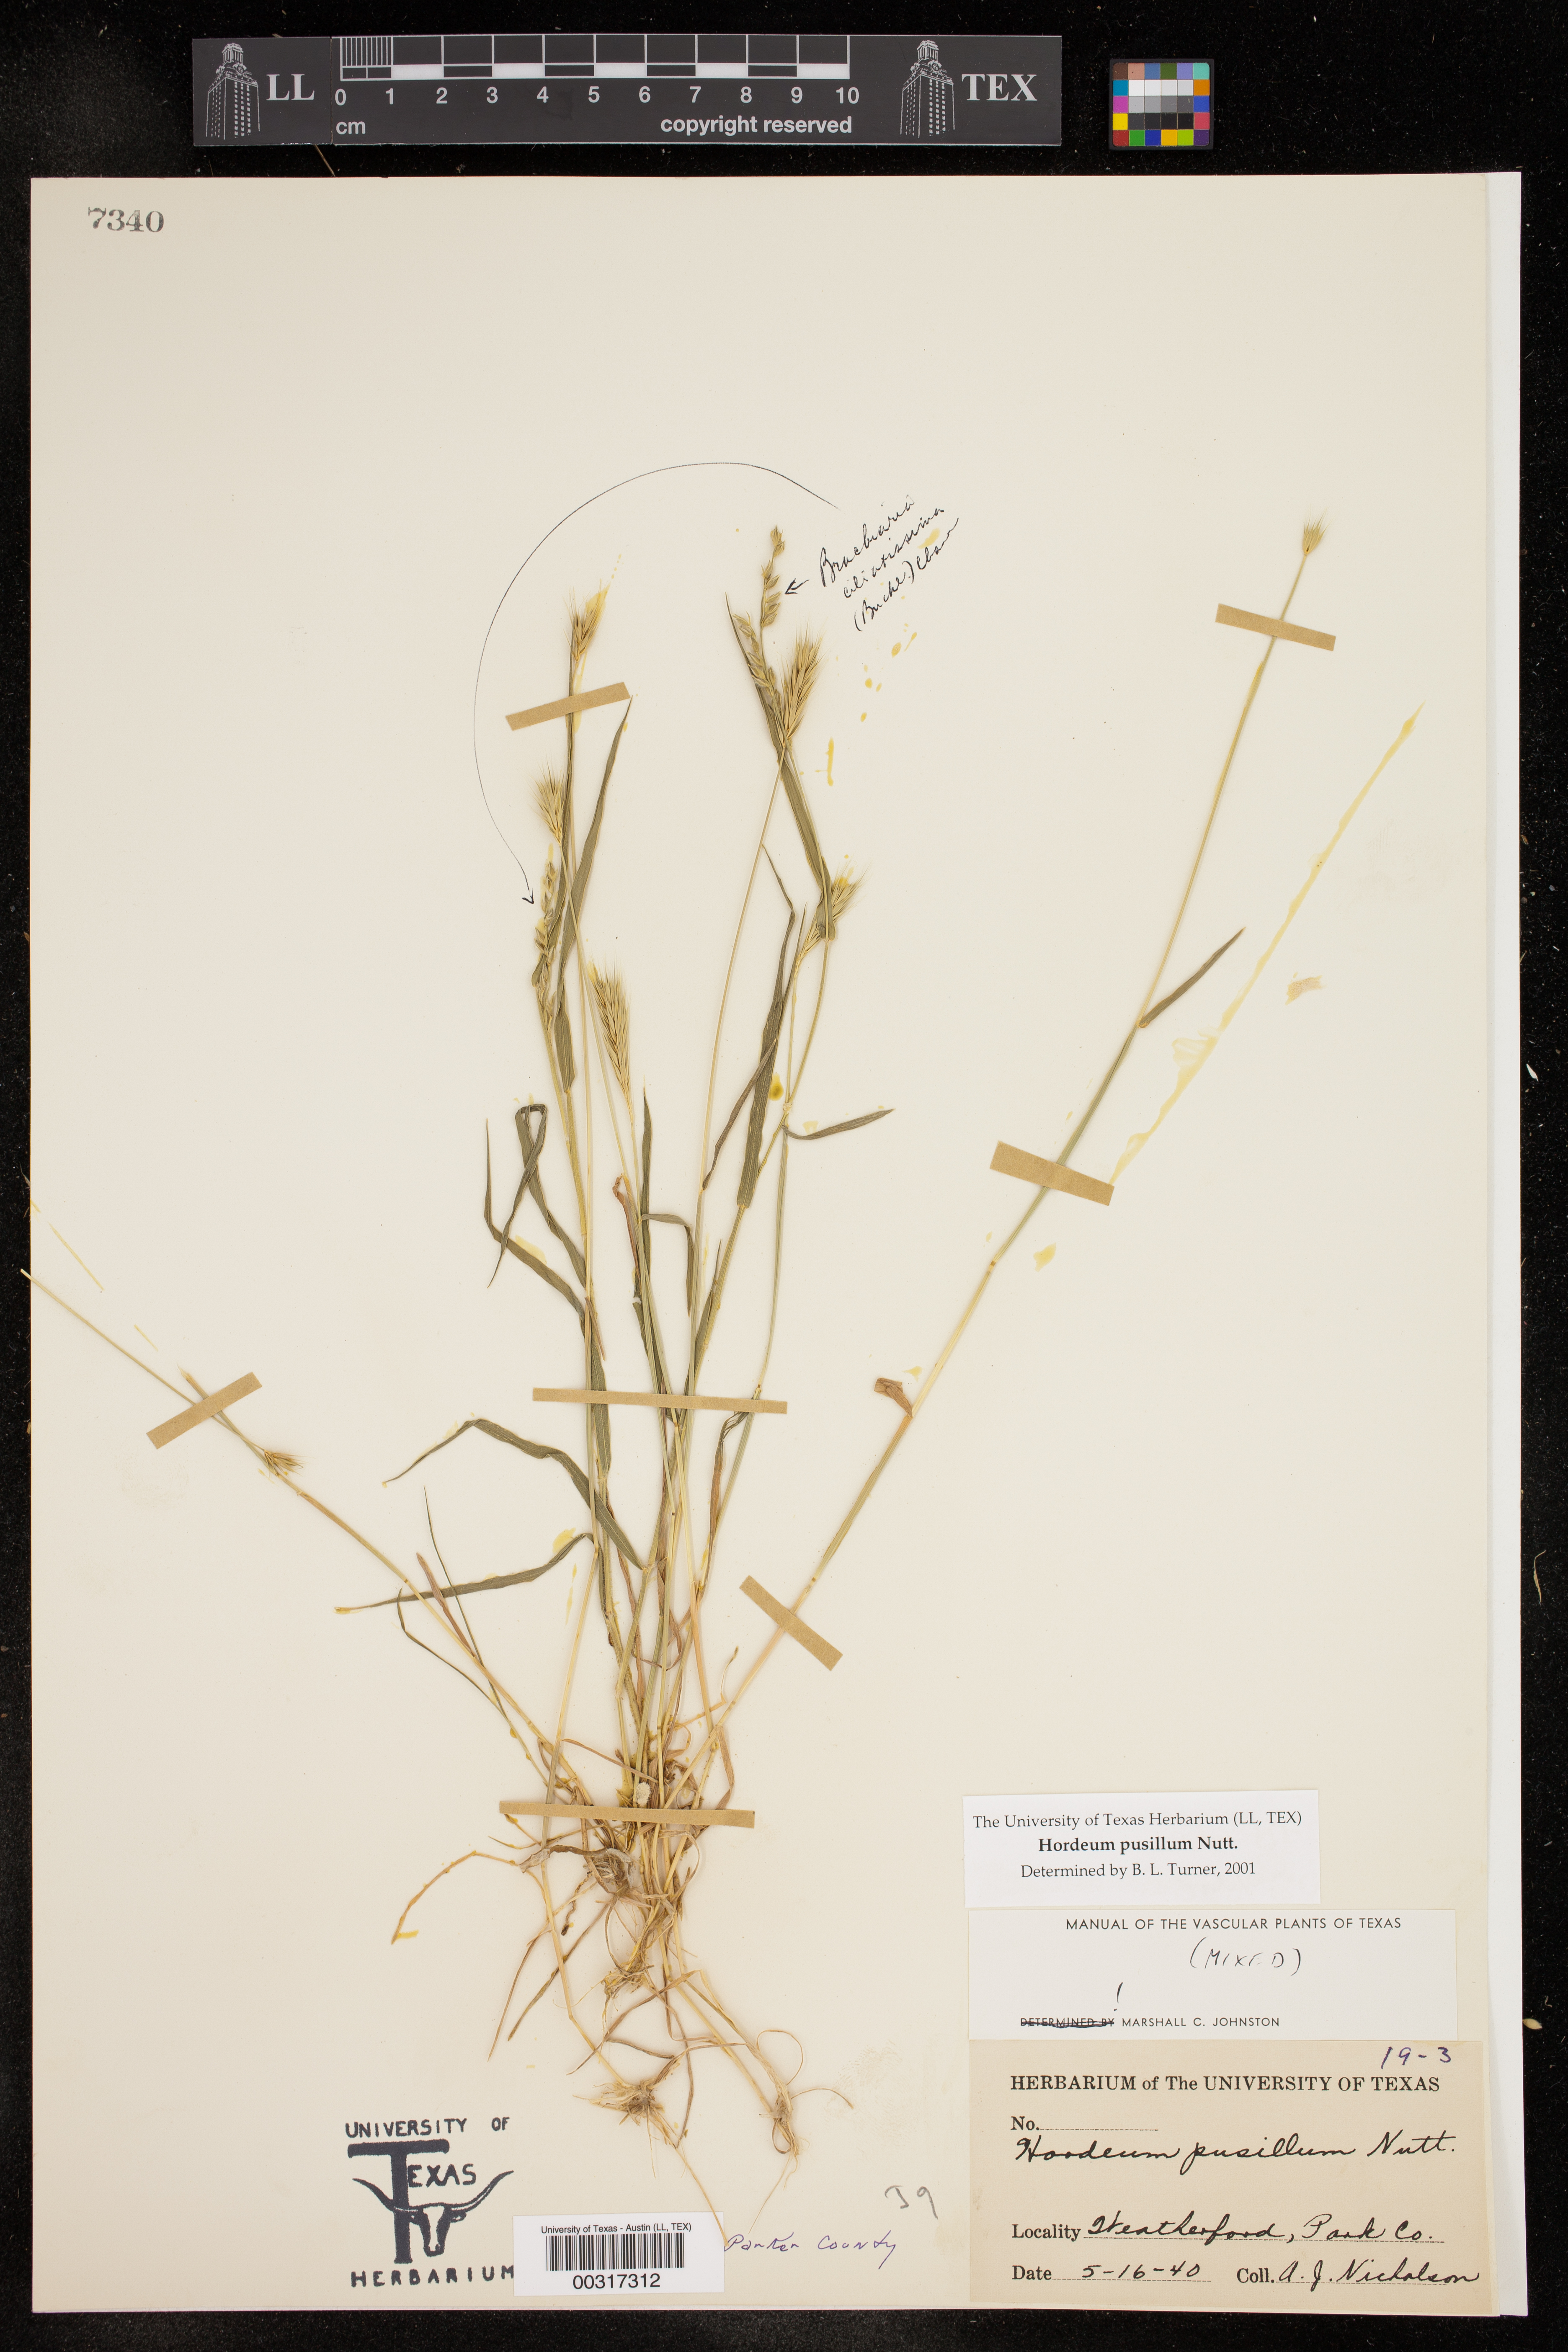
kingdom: Plantae
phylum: Tracheophyta
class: Liliopsida
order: Poales
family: Poaceae
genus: Hordeum
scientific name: Hordeum pusillum
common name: Little barley
